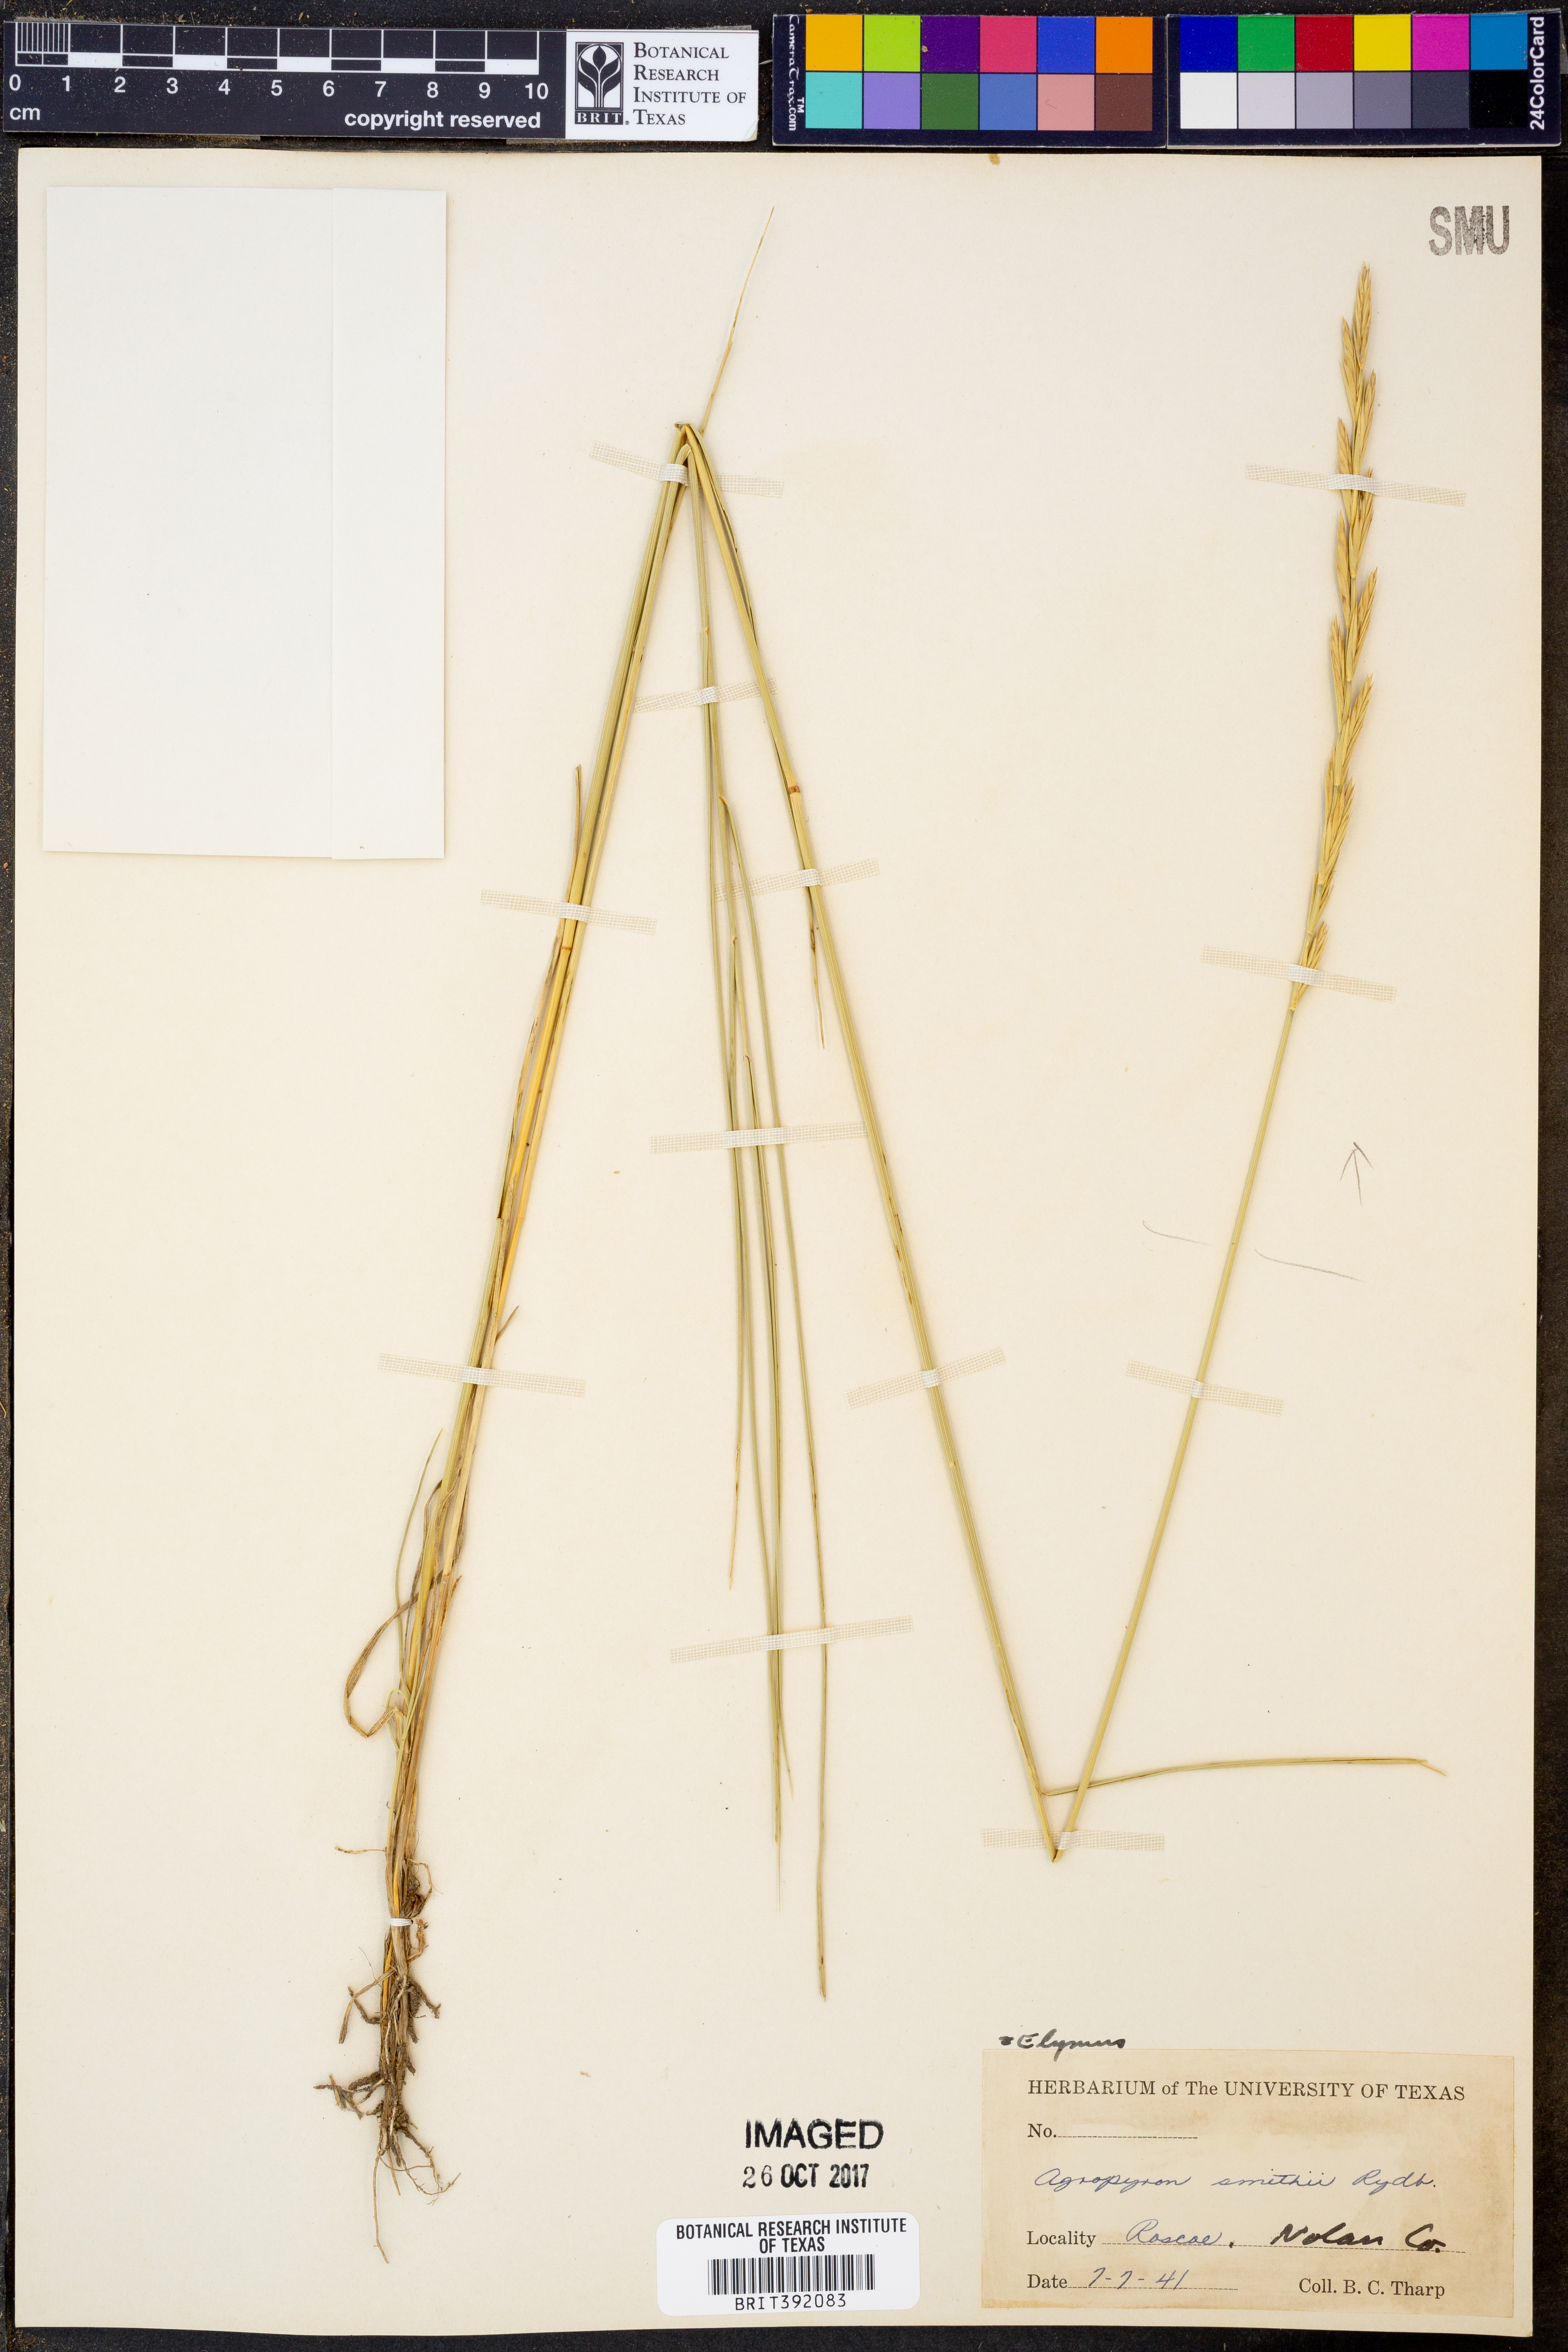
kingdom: Plantae
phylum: Tracheophyta
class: Liliopsida
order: Poales
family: Poaceae
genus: Elymus
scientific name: Elymus smithii
